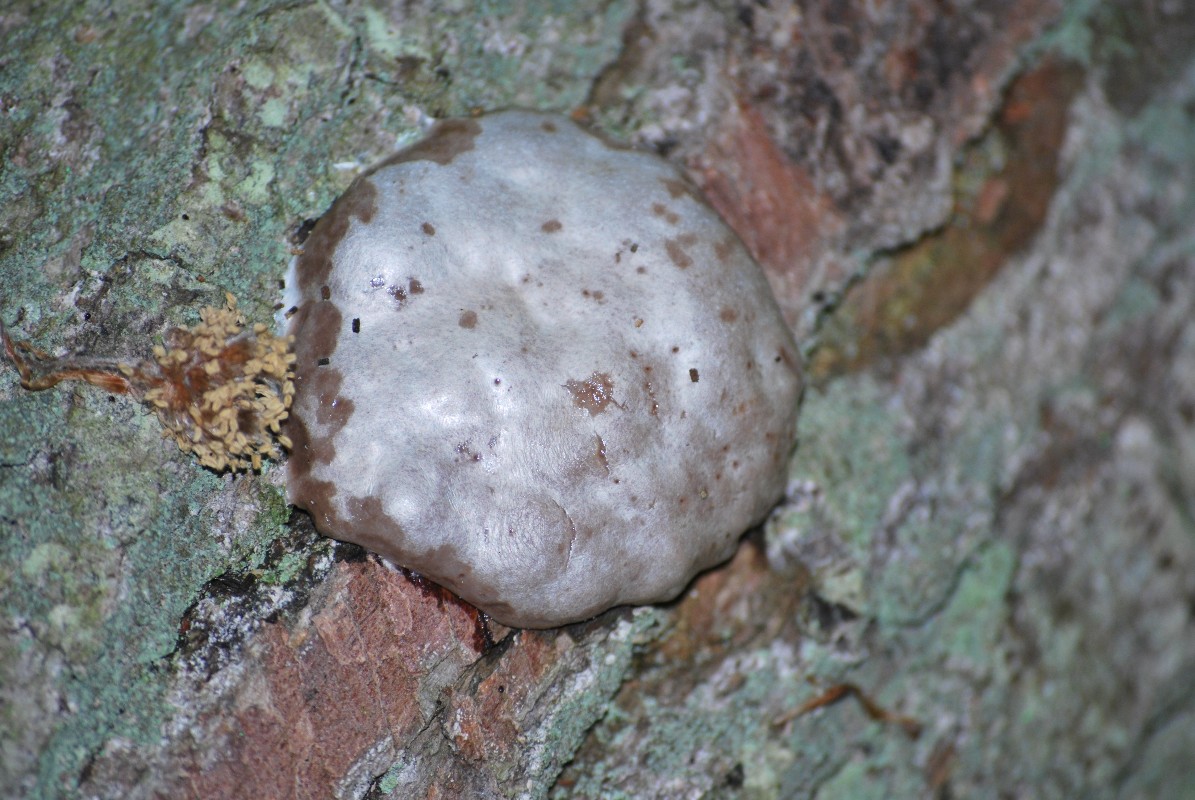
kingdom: Protozoa
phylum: Mycetozoa
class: Myxomycetes
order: Cribrariales
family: Tubiferaceae
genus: Reticularia
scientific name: Reticularia lycoperdon
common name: skinnende støvpude
